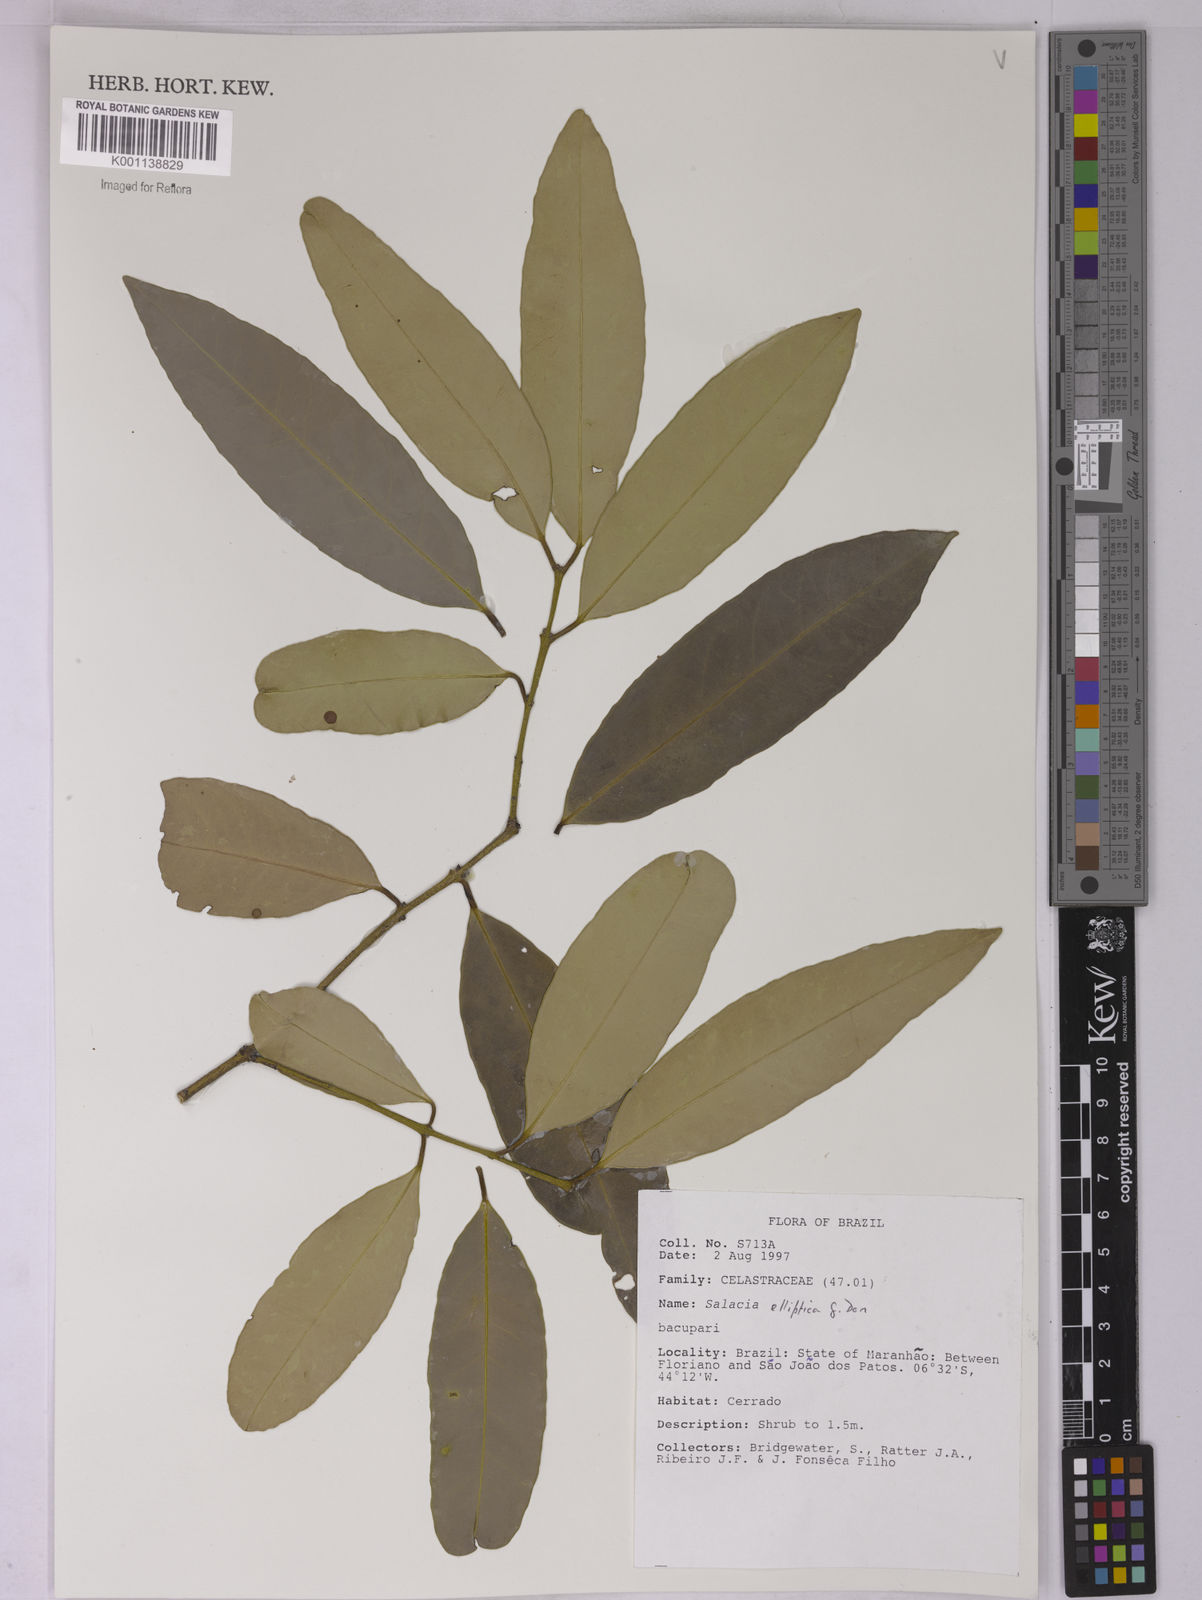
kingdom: Plantae
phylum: Tracheophyta
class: Magnoliopsida
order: Celastrales
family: Celastraceae
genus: Salacia
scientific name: Salacia elliptica
